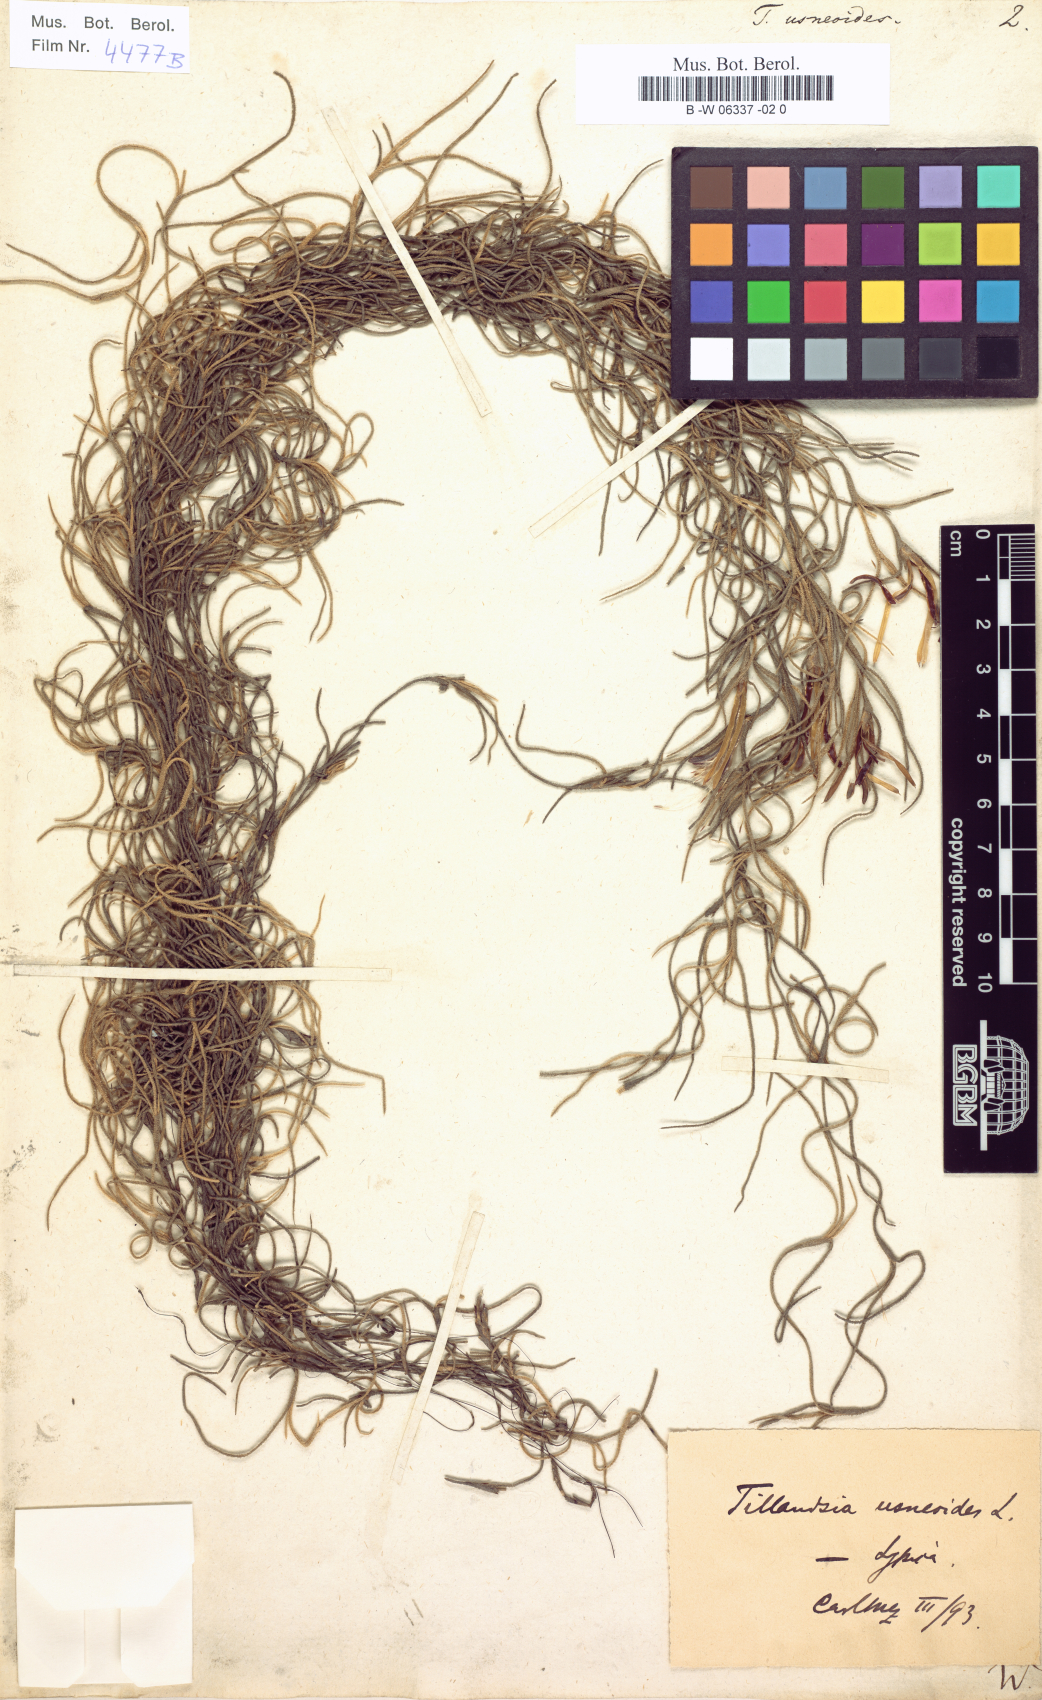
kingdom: Plantae
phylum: Tracheophyta
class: Liliopsida
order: Poales
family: Bromeliaceae
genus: Tillandsia
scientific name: Tillandsia usneoides
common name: Spanish moss
